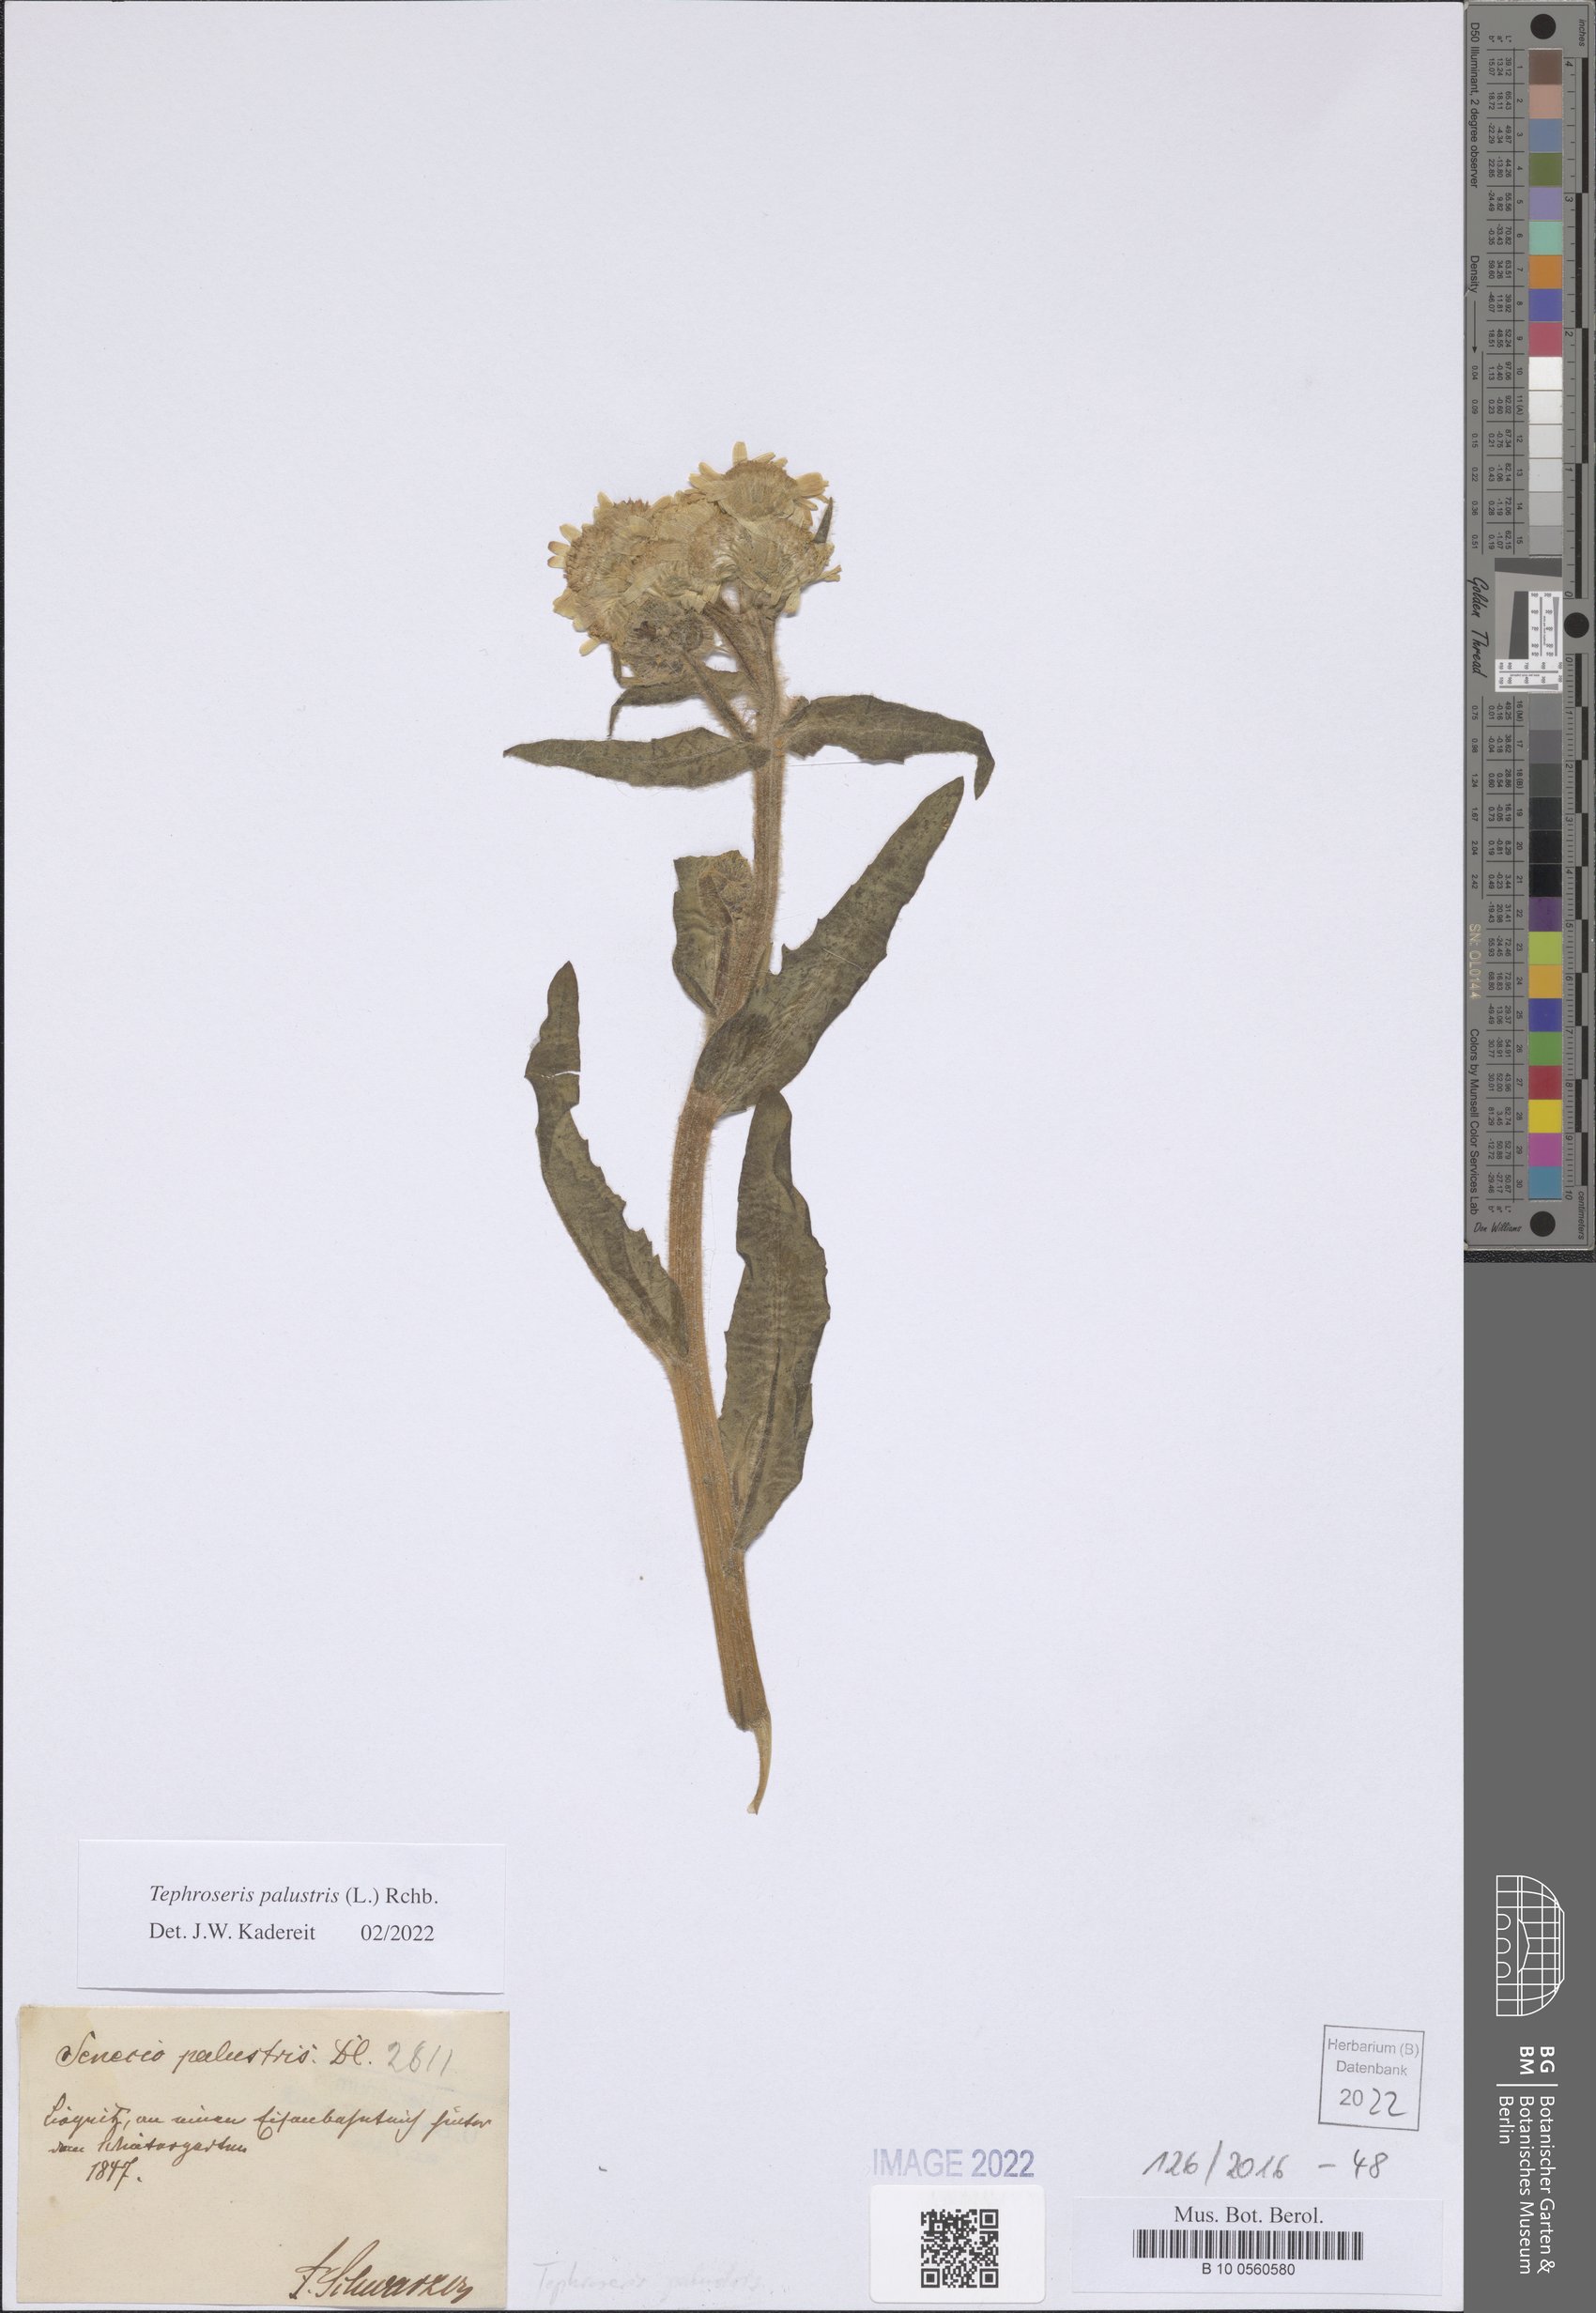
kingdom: Plantae
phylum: Tracheophyta
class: Magnoliopsida
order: Asterales
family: Asteraceae
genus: Tephroseris
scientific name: Tephroseris palustris
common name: Marsh fleawort
